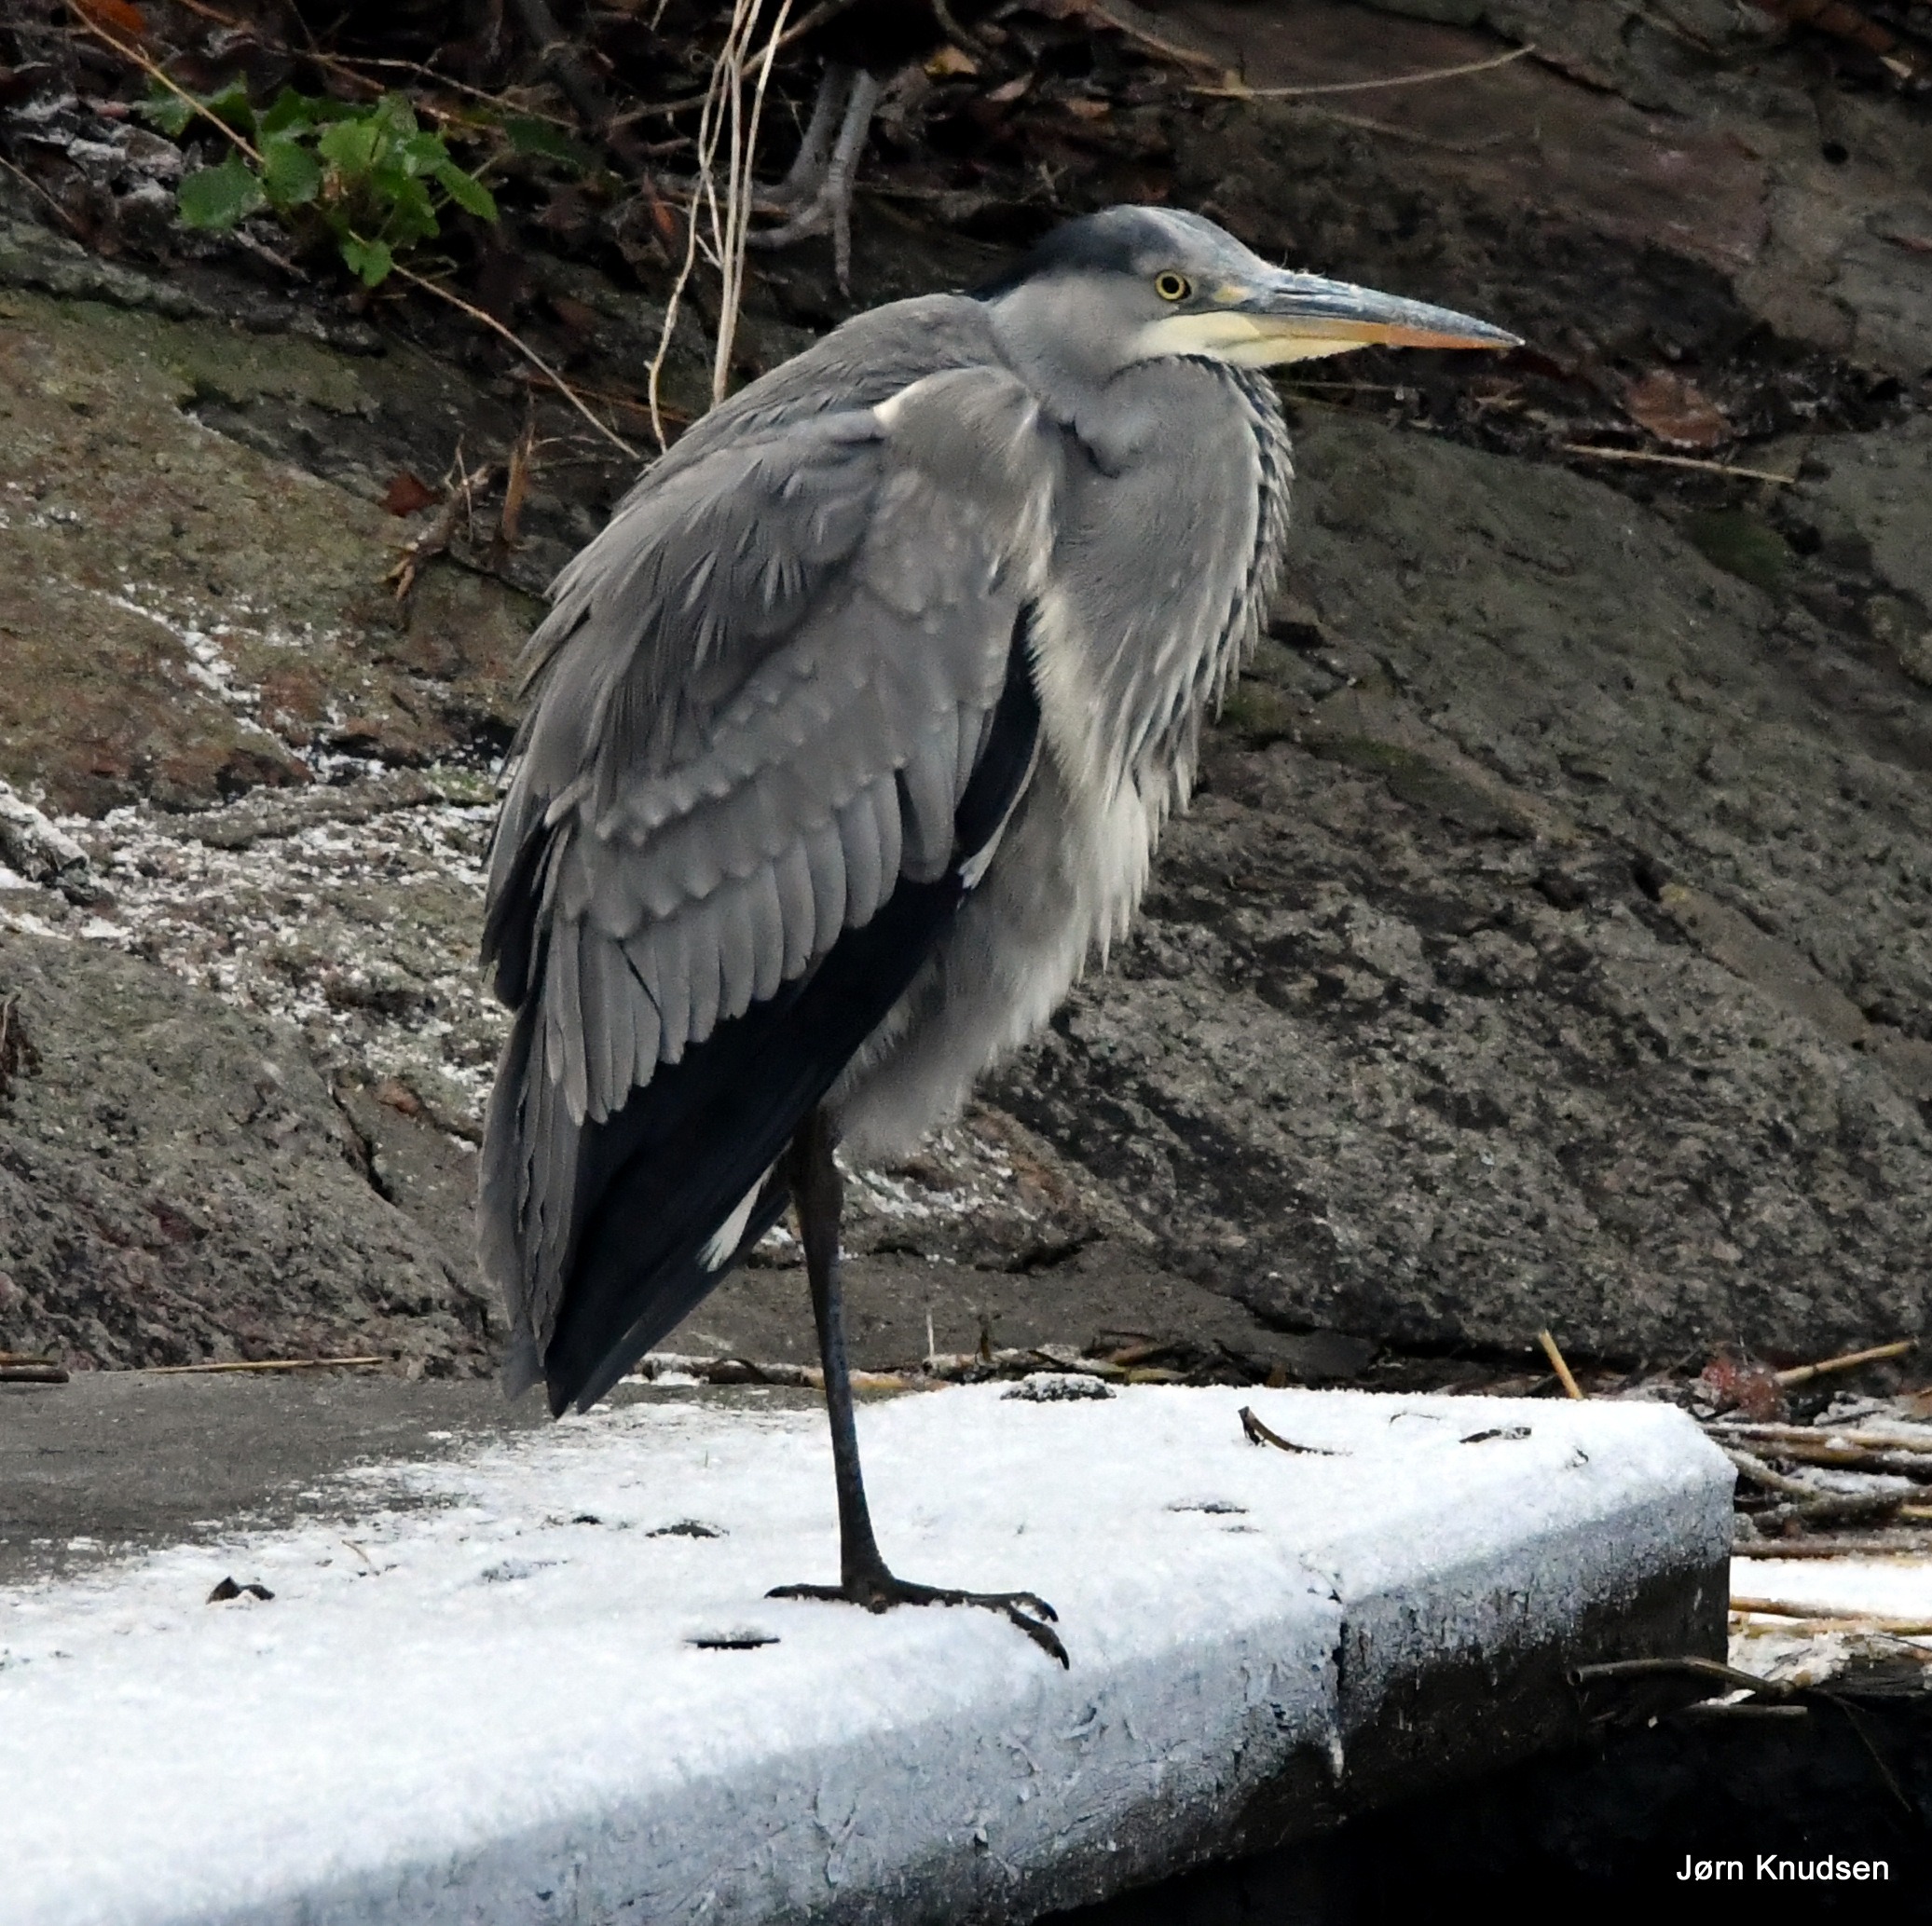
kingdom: Animalia
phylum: Chordata
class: Aves
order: Pelecaniformes
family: Ardeidae
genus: Ardea
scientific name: Ardea cinerea
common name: Fiskehejre
